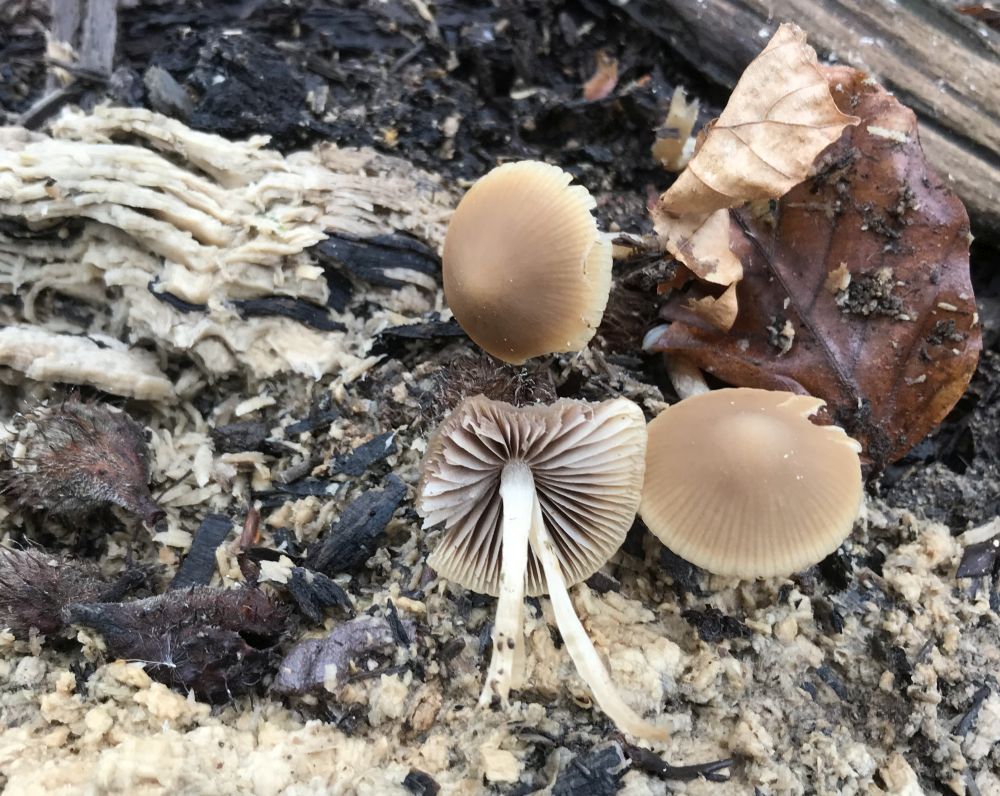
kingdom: Fungi
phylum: Basidiomycota
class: Agaricomycetes
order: Agaricales
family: Psathyrellaceae
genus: Psathyrella
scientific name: Psathyrella
